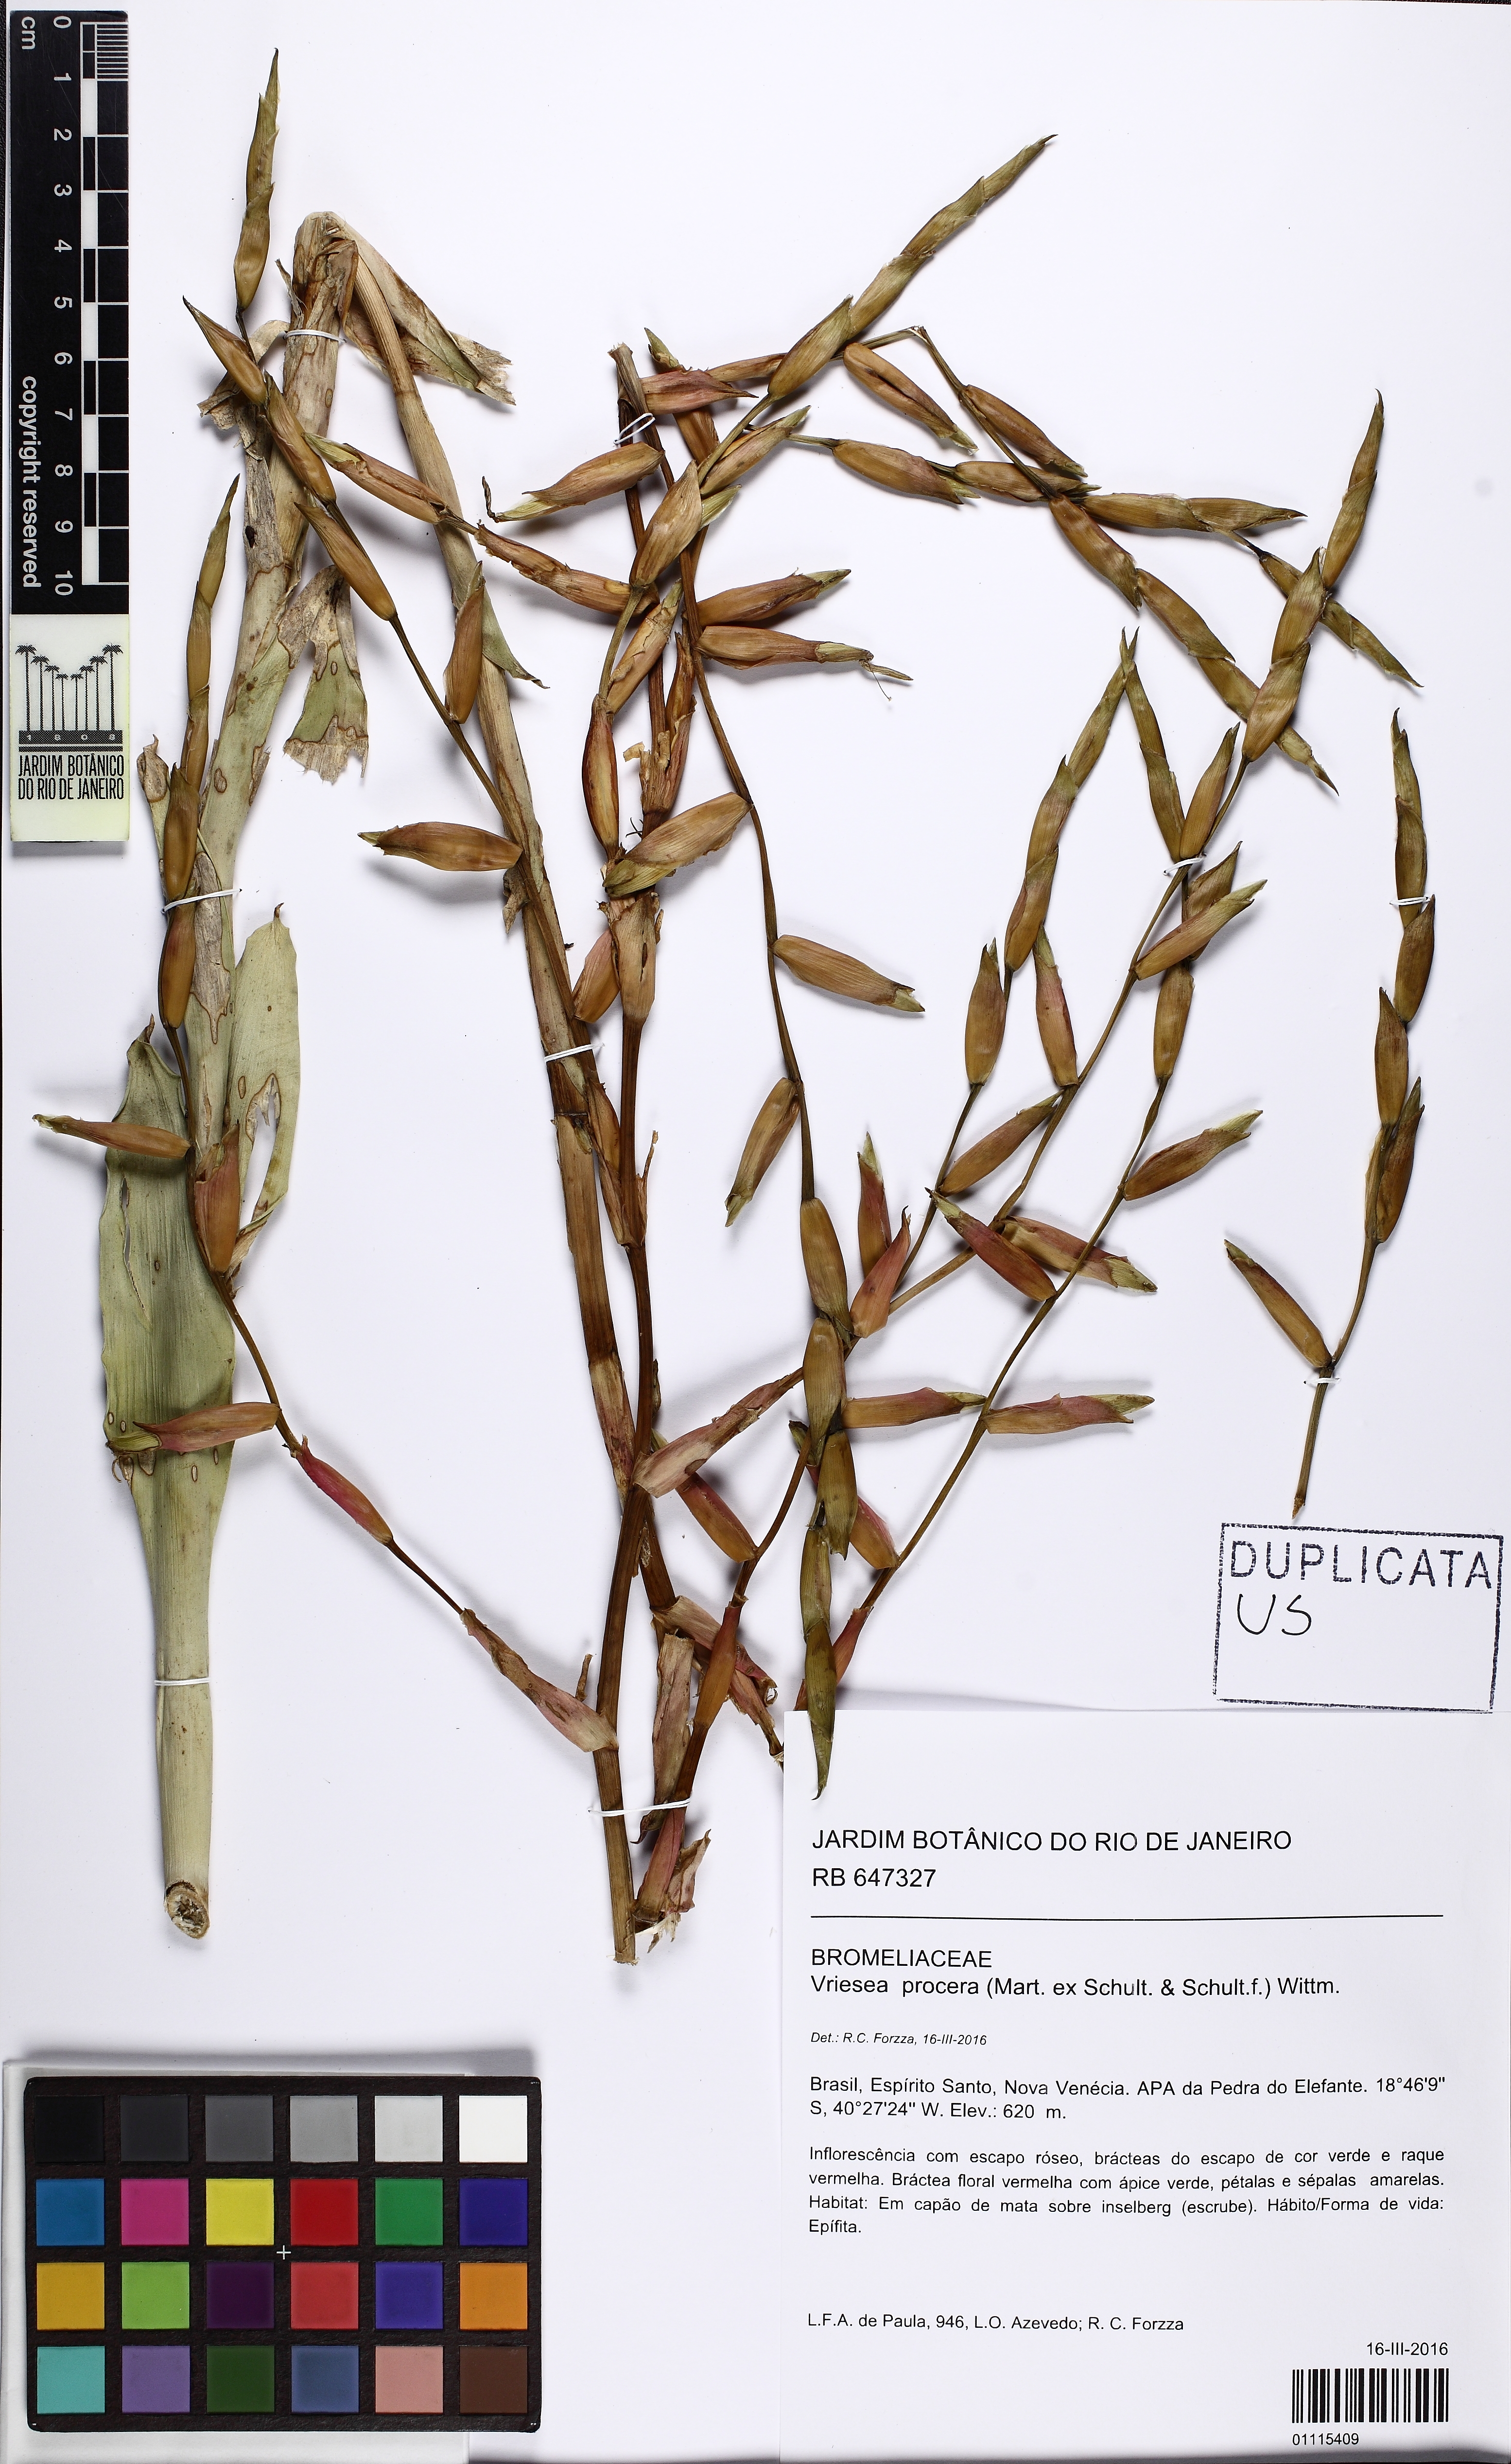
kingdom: Plantae
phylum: Tracheophyta
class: Liliopsida
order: Poales
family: Bromeliaceae
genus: Vriesea
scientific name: Vriesea procera
